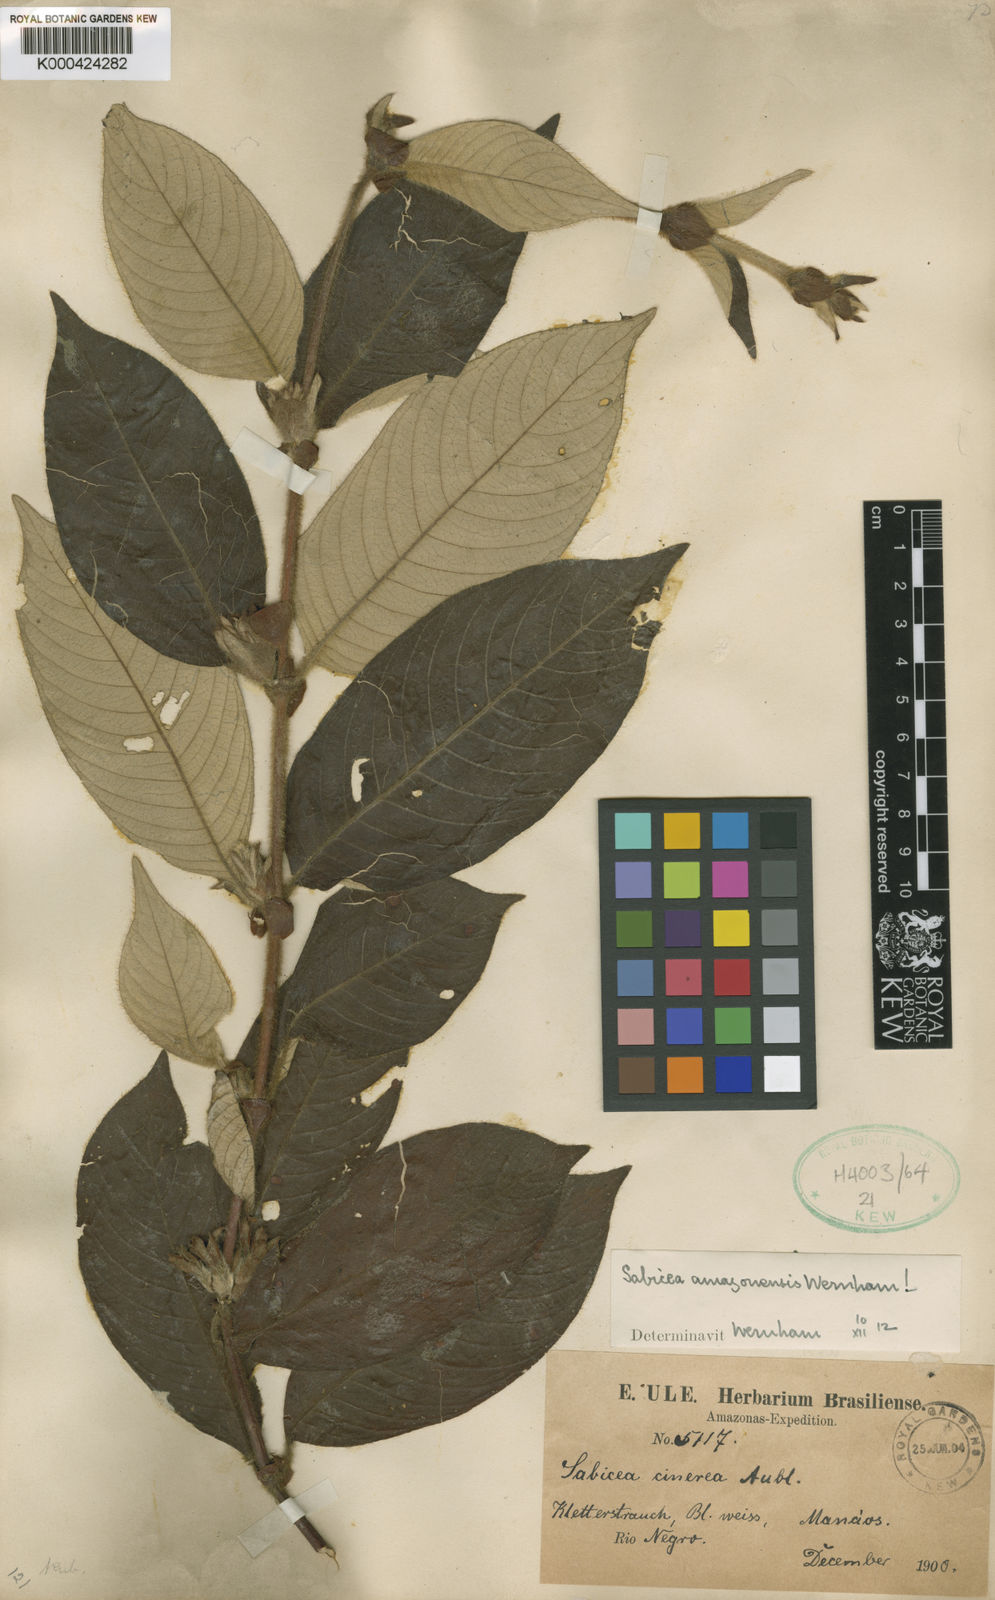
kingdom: Plantae
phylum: Tracheophyta
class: Magnoliopsida
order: Gentianales
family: Rubiaceae
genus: Sabicea
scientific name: Sabicea mollissima
